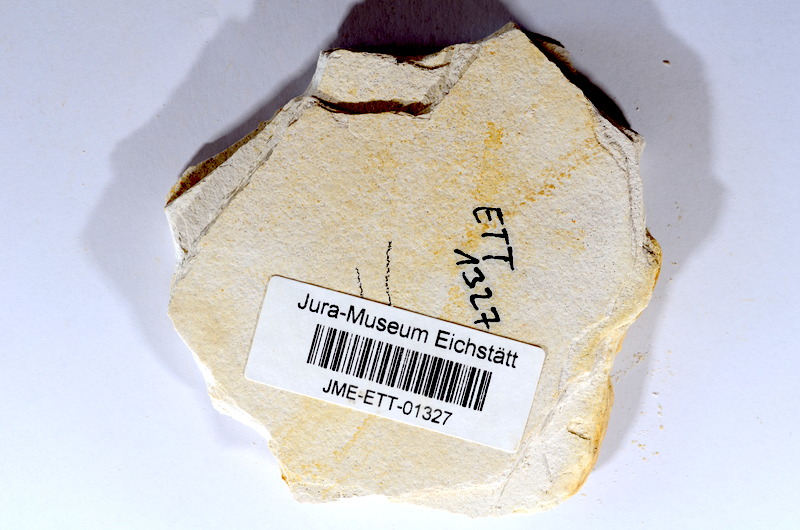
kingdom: Animalia
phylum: Chordata
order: Salmoniformes
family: Orthogonikleithridae
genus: Orthogonikleithrus
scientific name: Orthogonikleithrus hoelli
